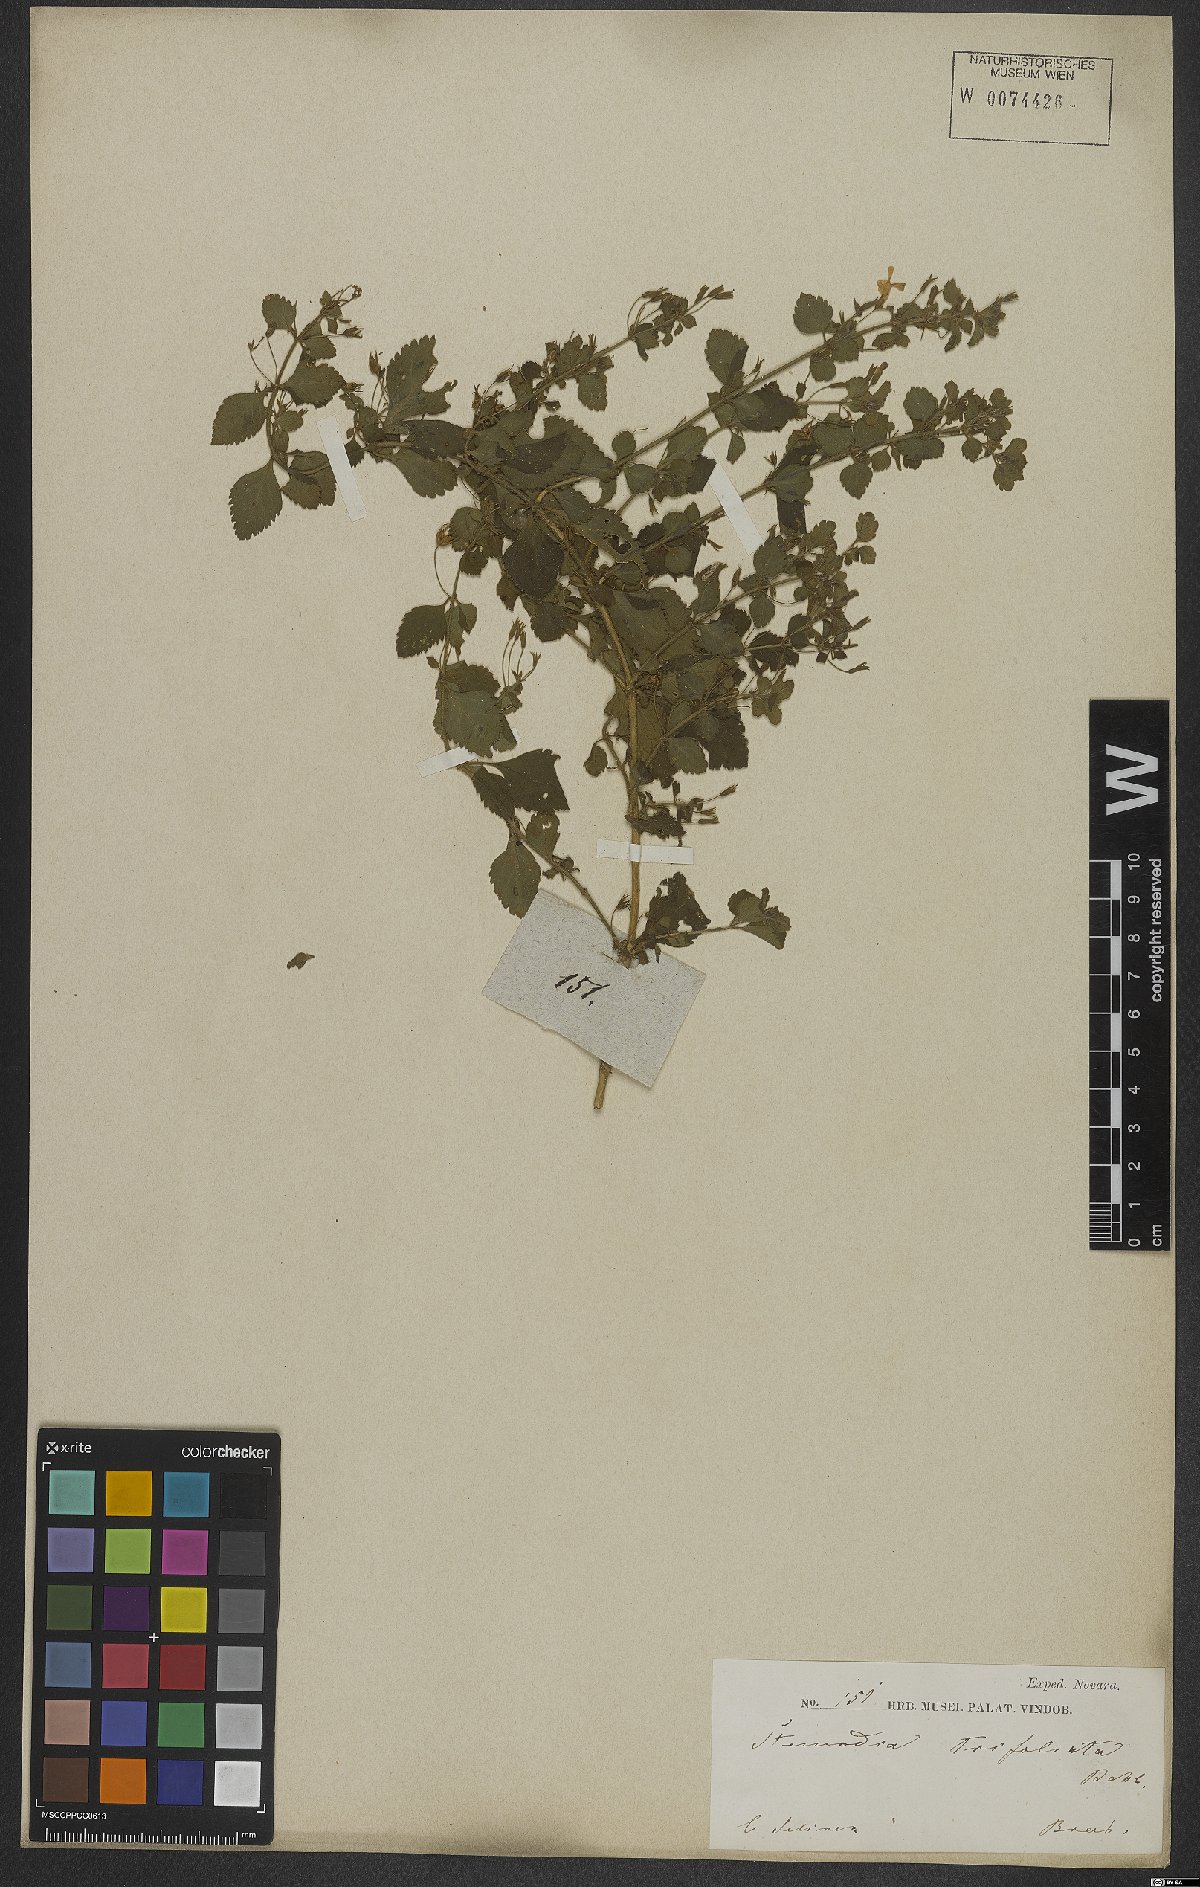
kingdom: Plantae
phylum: Tracheophyta
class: Magnoliopsida
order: Lamiales
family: Plantaginaceae
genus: Stemodia
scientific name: Stemodia trifoliata
